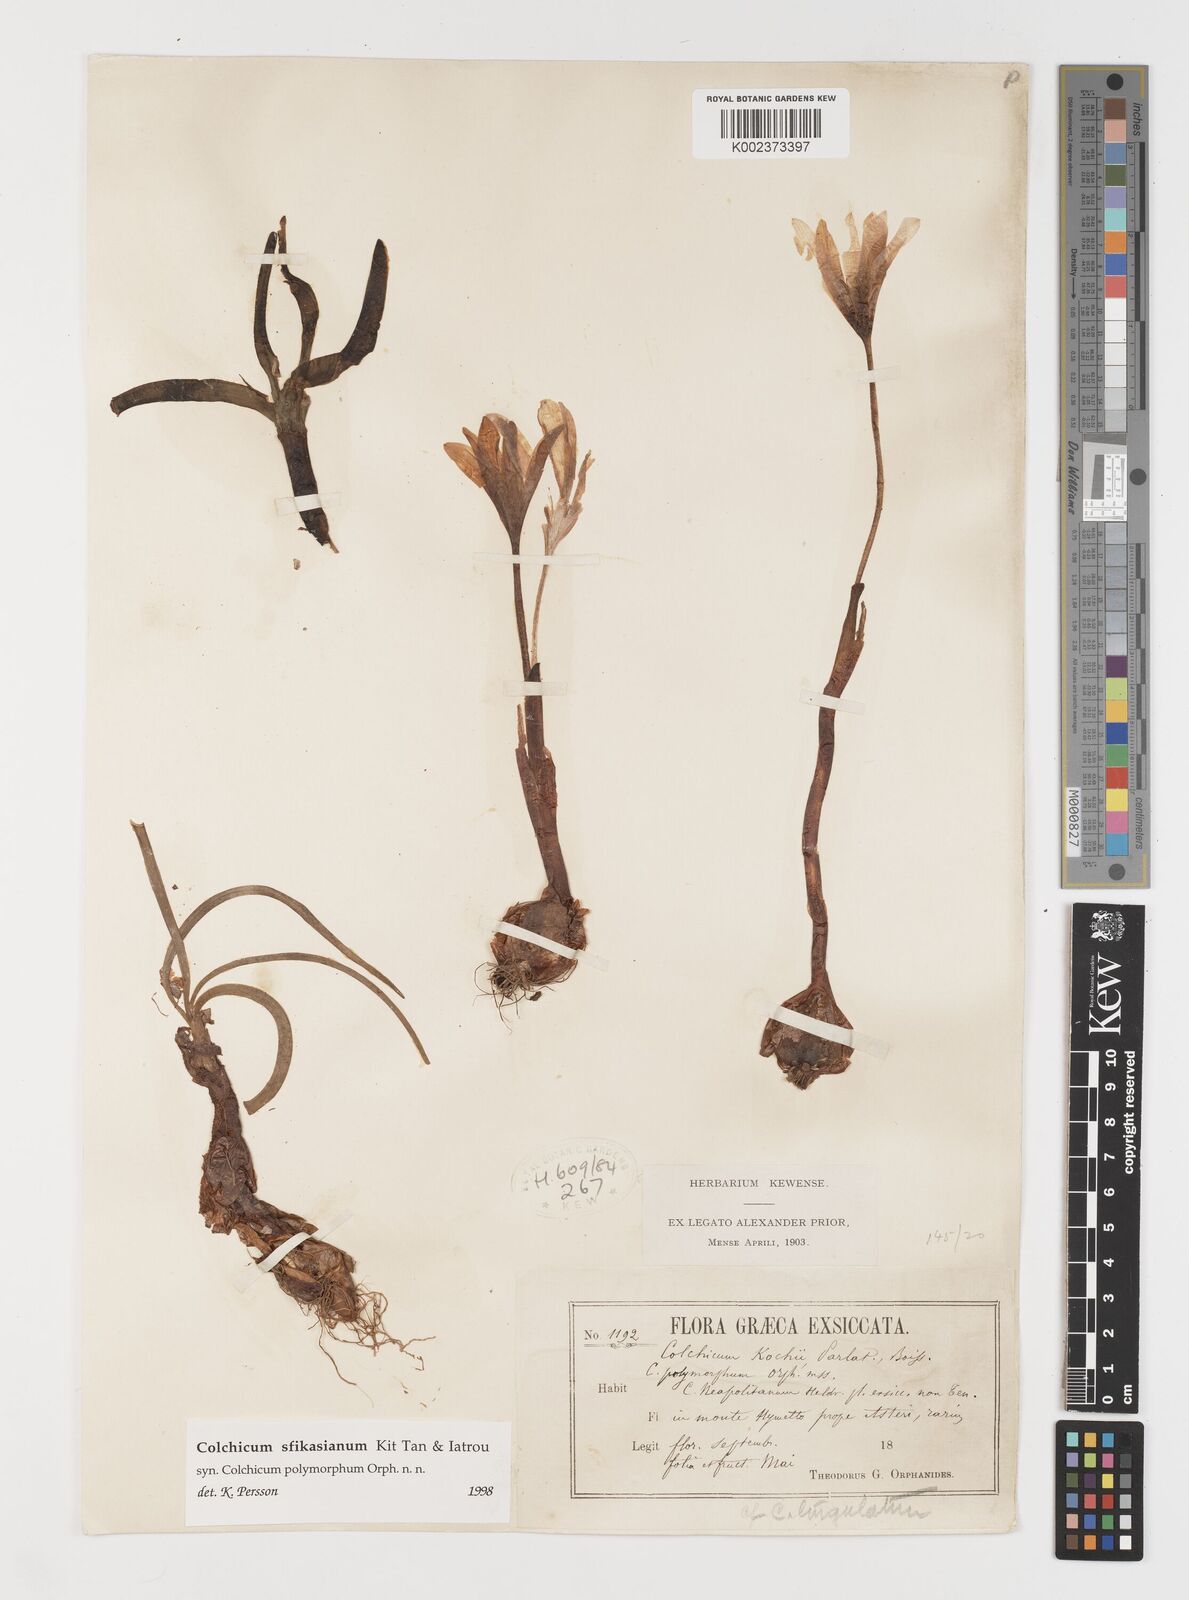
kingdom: Plantae
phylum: Tracheophyta
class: Liliopsida
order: Liliales
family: Colchicaceae
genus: Colchicum
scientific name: Colchicum sfikasianum
